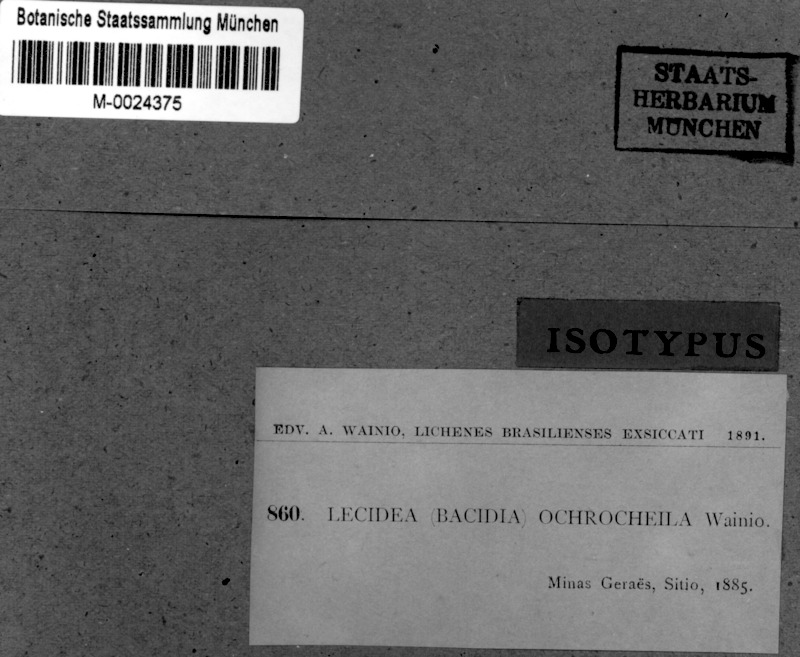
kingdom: Fungi
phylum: Ascomycota
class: Lecanoromycetes
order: Lecanorales
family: Ramalinaceae
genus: Bacidia
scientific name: Bacidia
